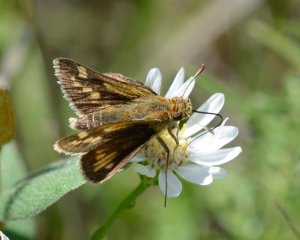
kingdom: Animalia
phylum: Arthropoda
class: Insecta
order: Lepidoptera
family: Hesperiidae
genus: Polites
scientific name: Polites coras
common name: Peck's Skipper
